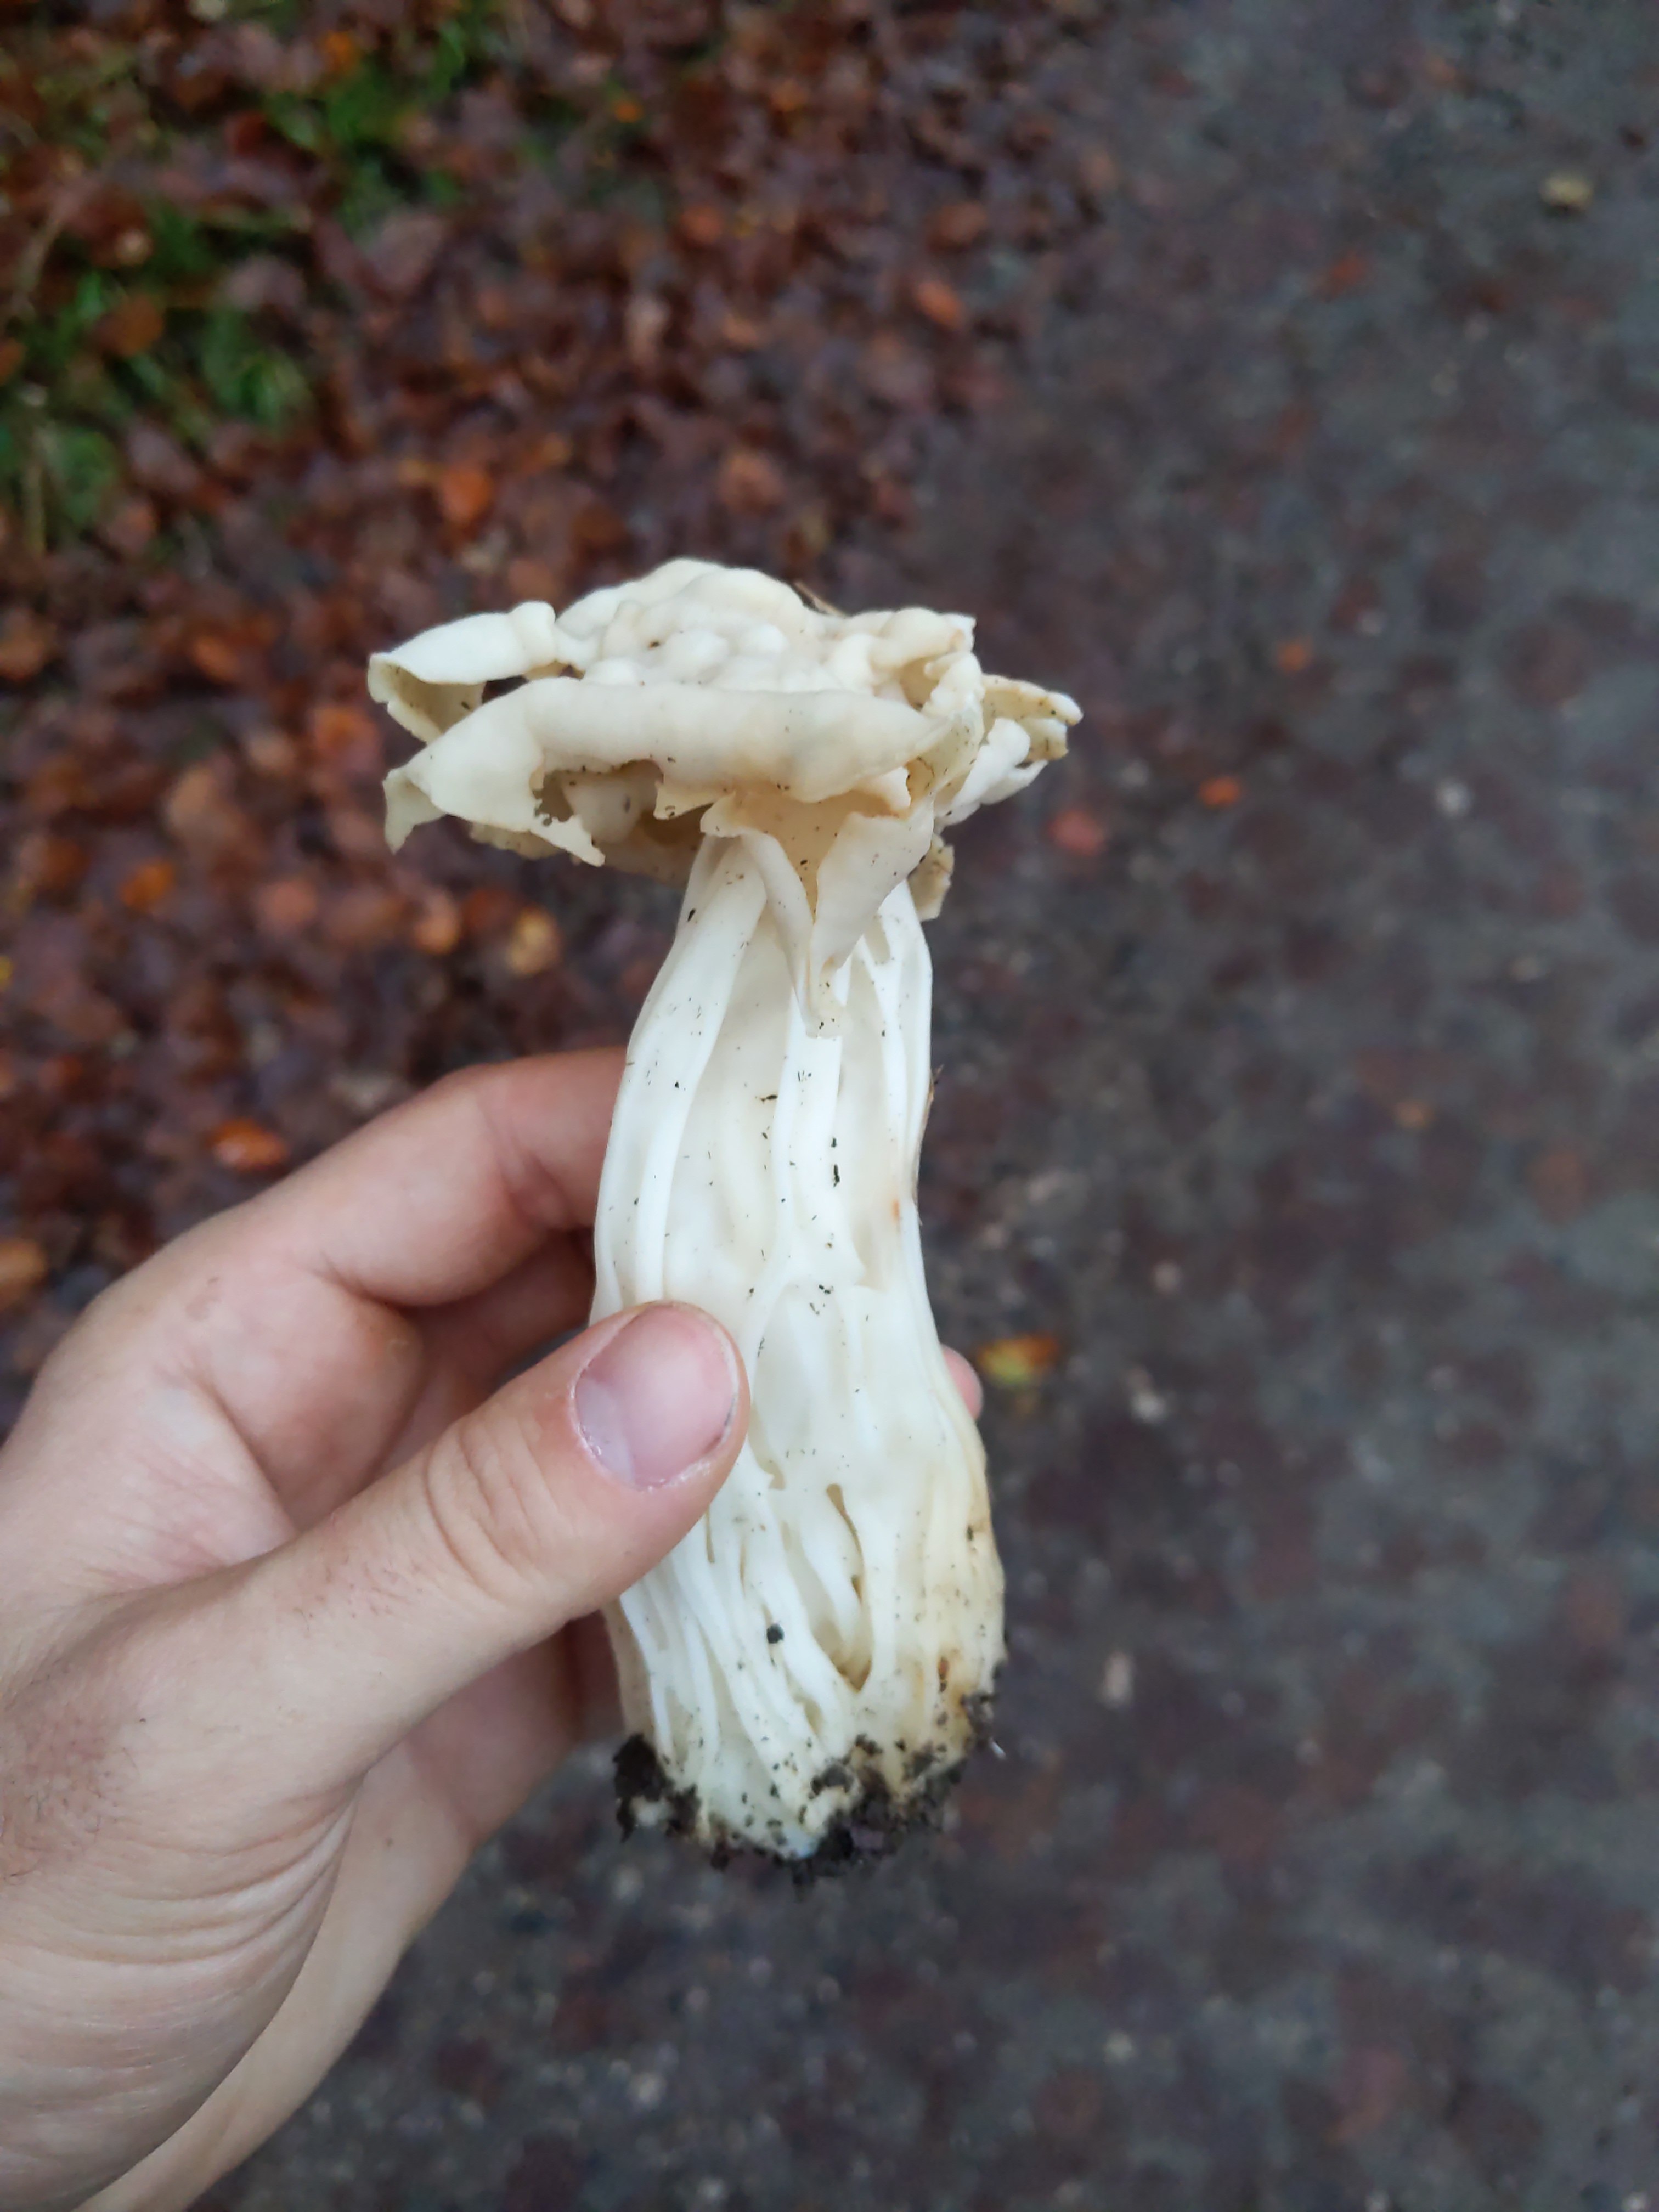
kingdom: Fungi
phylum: Ascomycota
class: Pezizomycetes
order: Pezizales
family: Helvellaceae
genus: Helvella
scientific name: Helvella crispa
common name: kruset foldhat
